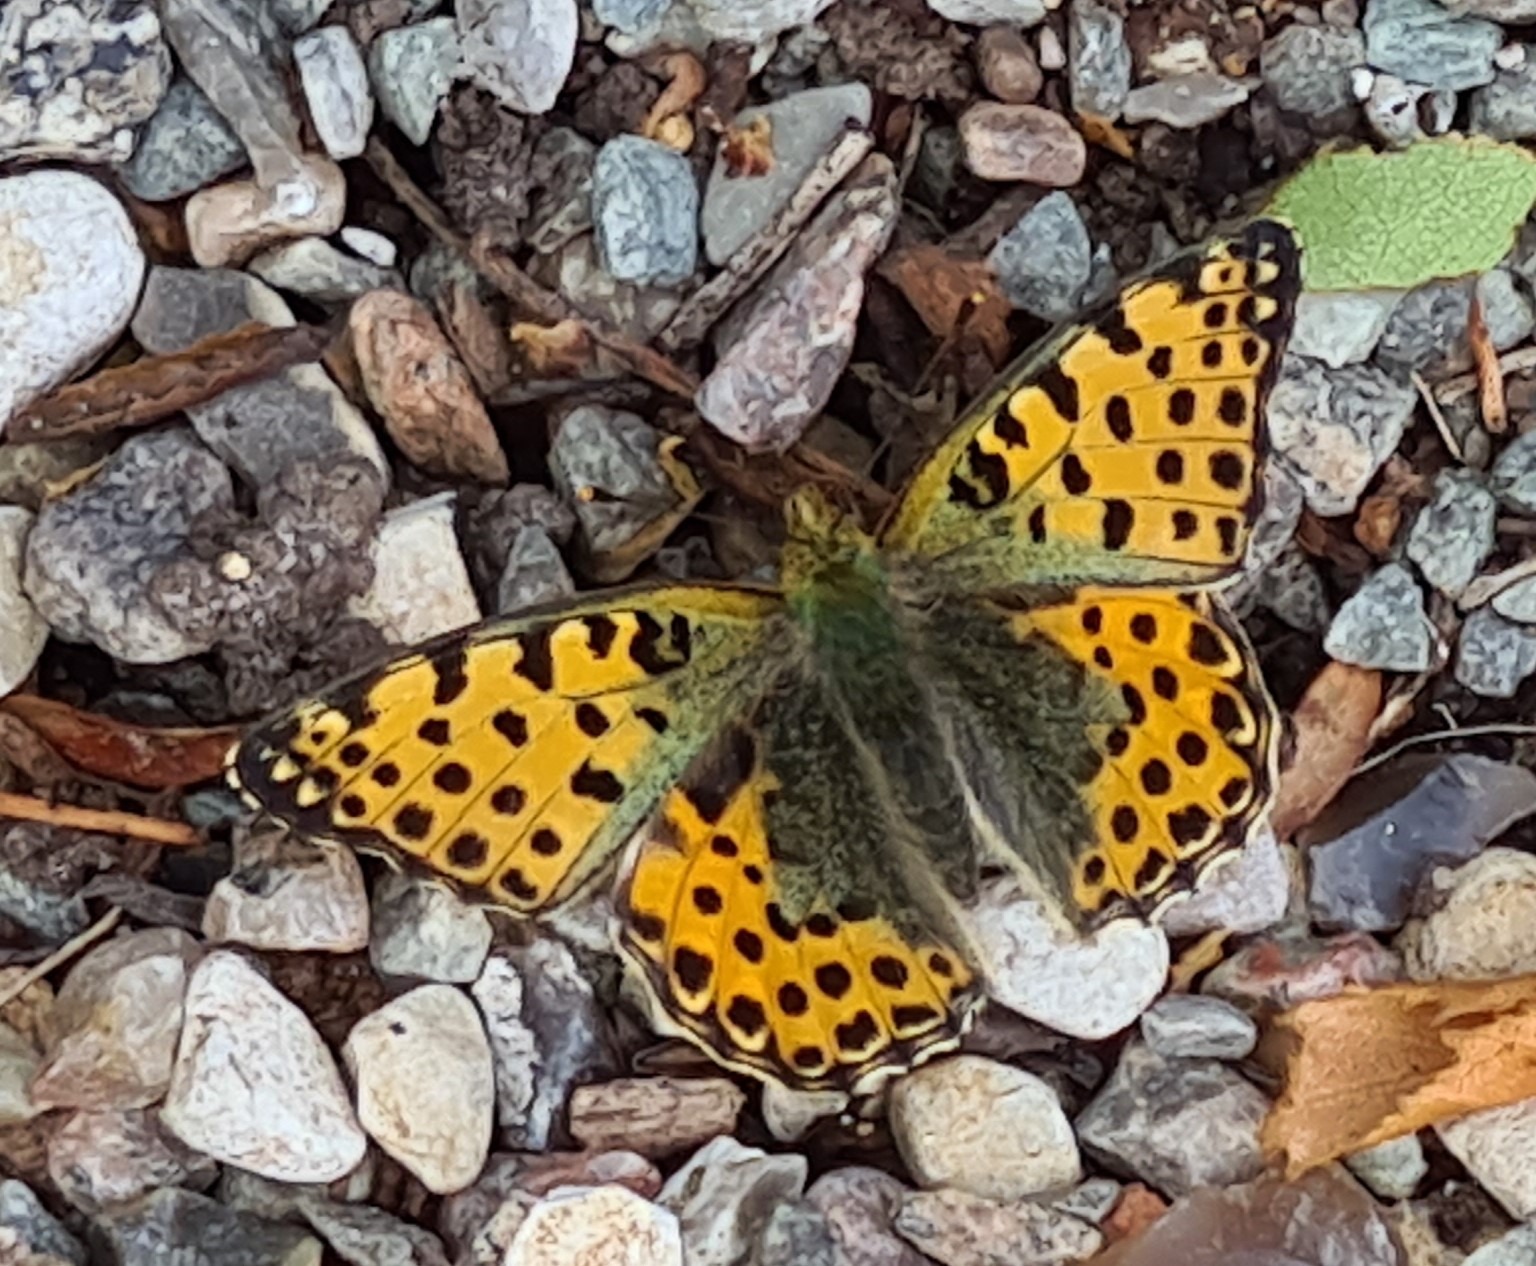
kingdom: Animalia
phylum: Arthropoda
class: Insecta
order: Lepidoptera
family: Nymphalidae
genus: Issoria
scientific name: Issoria lathonia
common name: Storplettet perlemorsommerfugl
